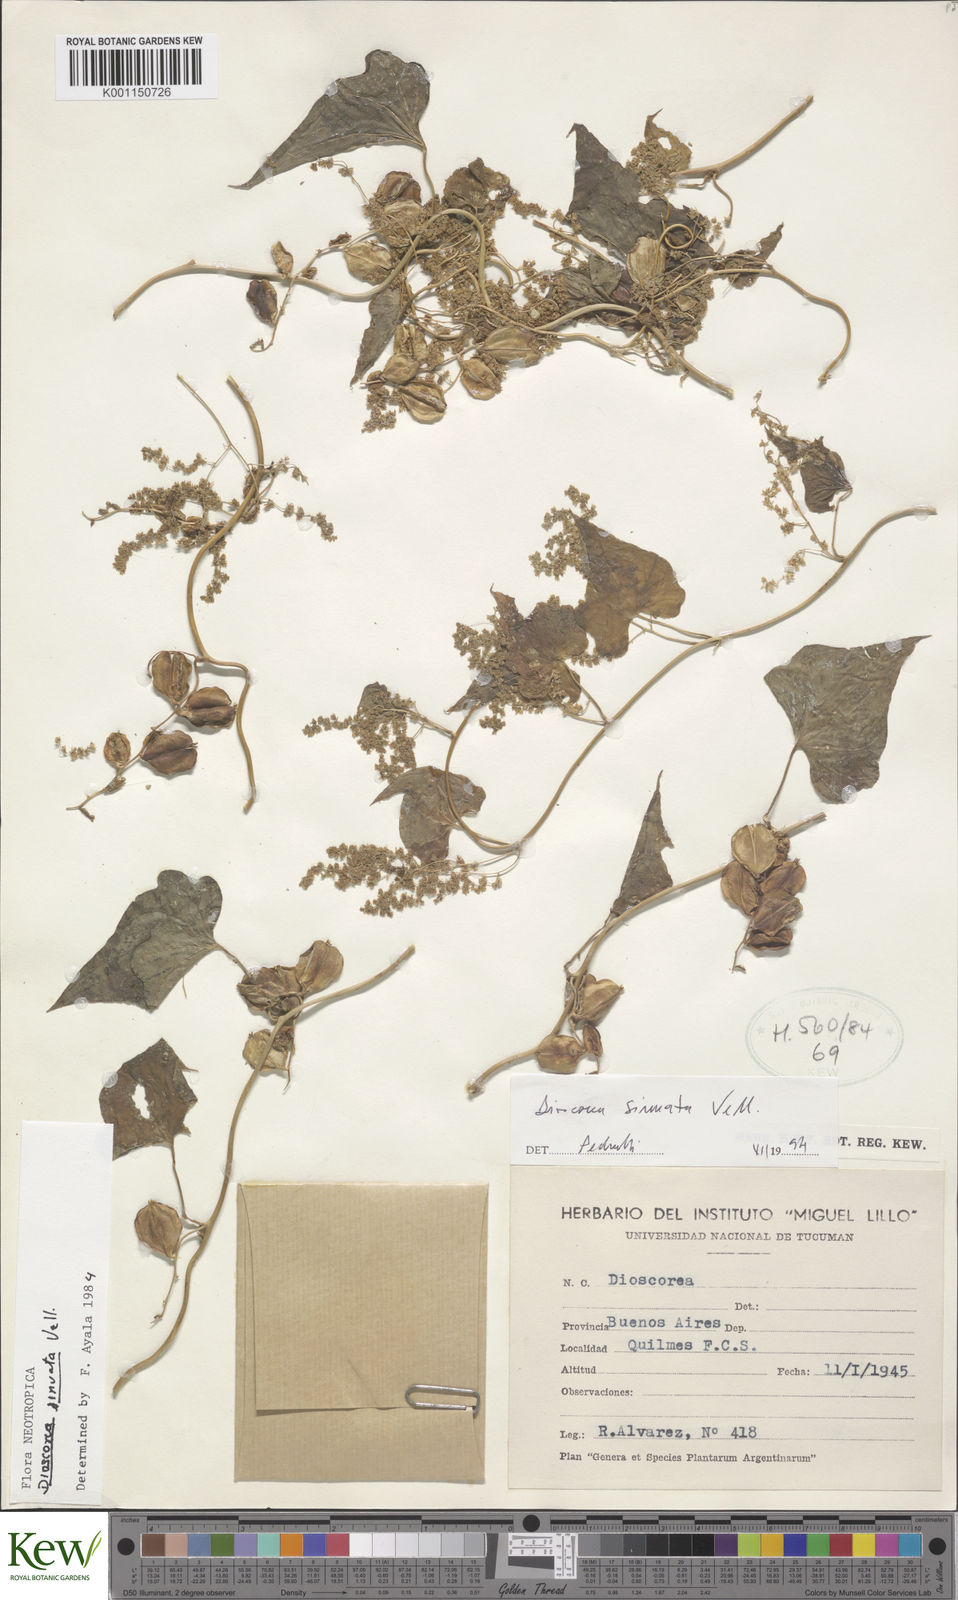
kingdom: Plantae
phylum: Tracheophyta
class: Liliopsida
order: Dioscoreales
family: Dioscoreaceae
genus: Dioscorea
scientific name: Dioscorea sinuata
